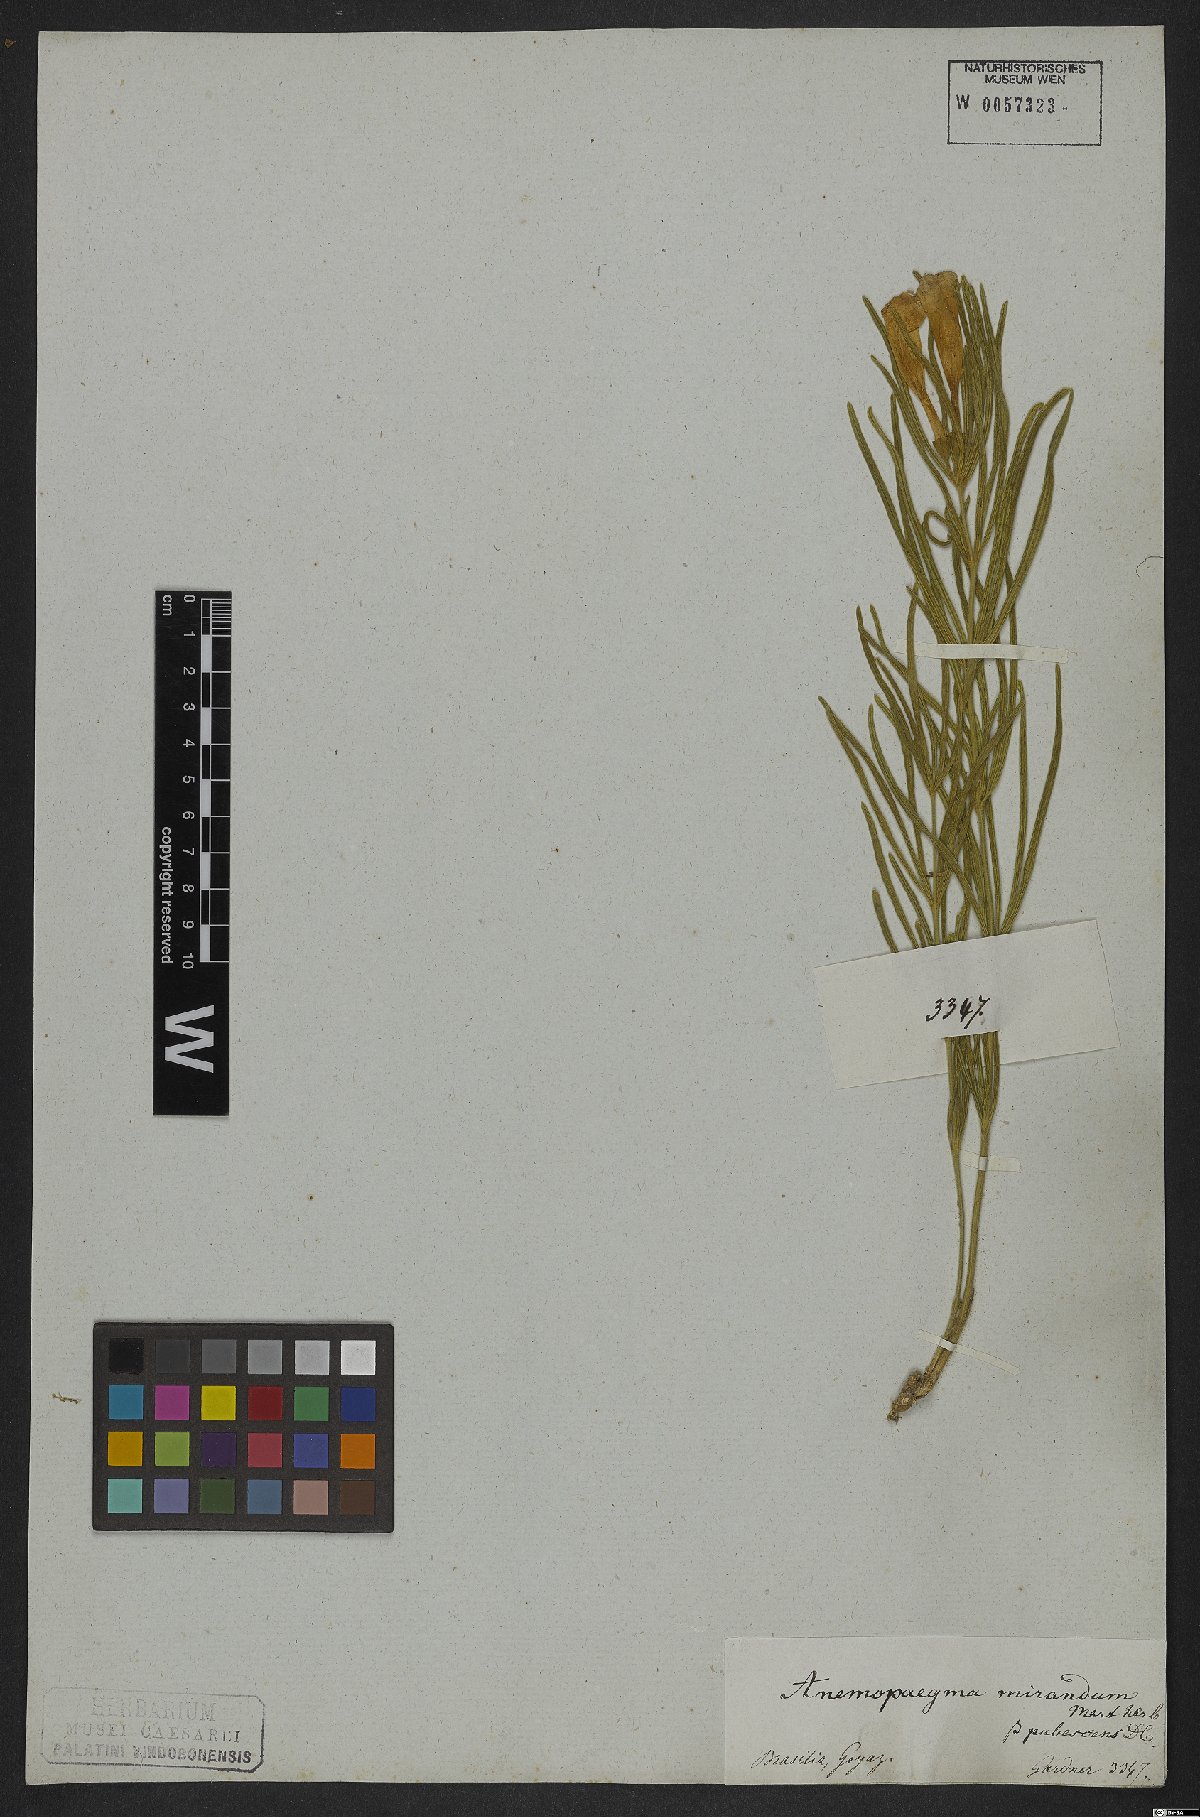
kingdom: Plantae
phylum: Tracheophyta
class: Magnoliopsida
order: Lamiales
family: Bignoniaceae
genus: Anemopaegma
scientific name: Anemopaegma arvense
